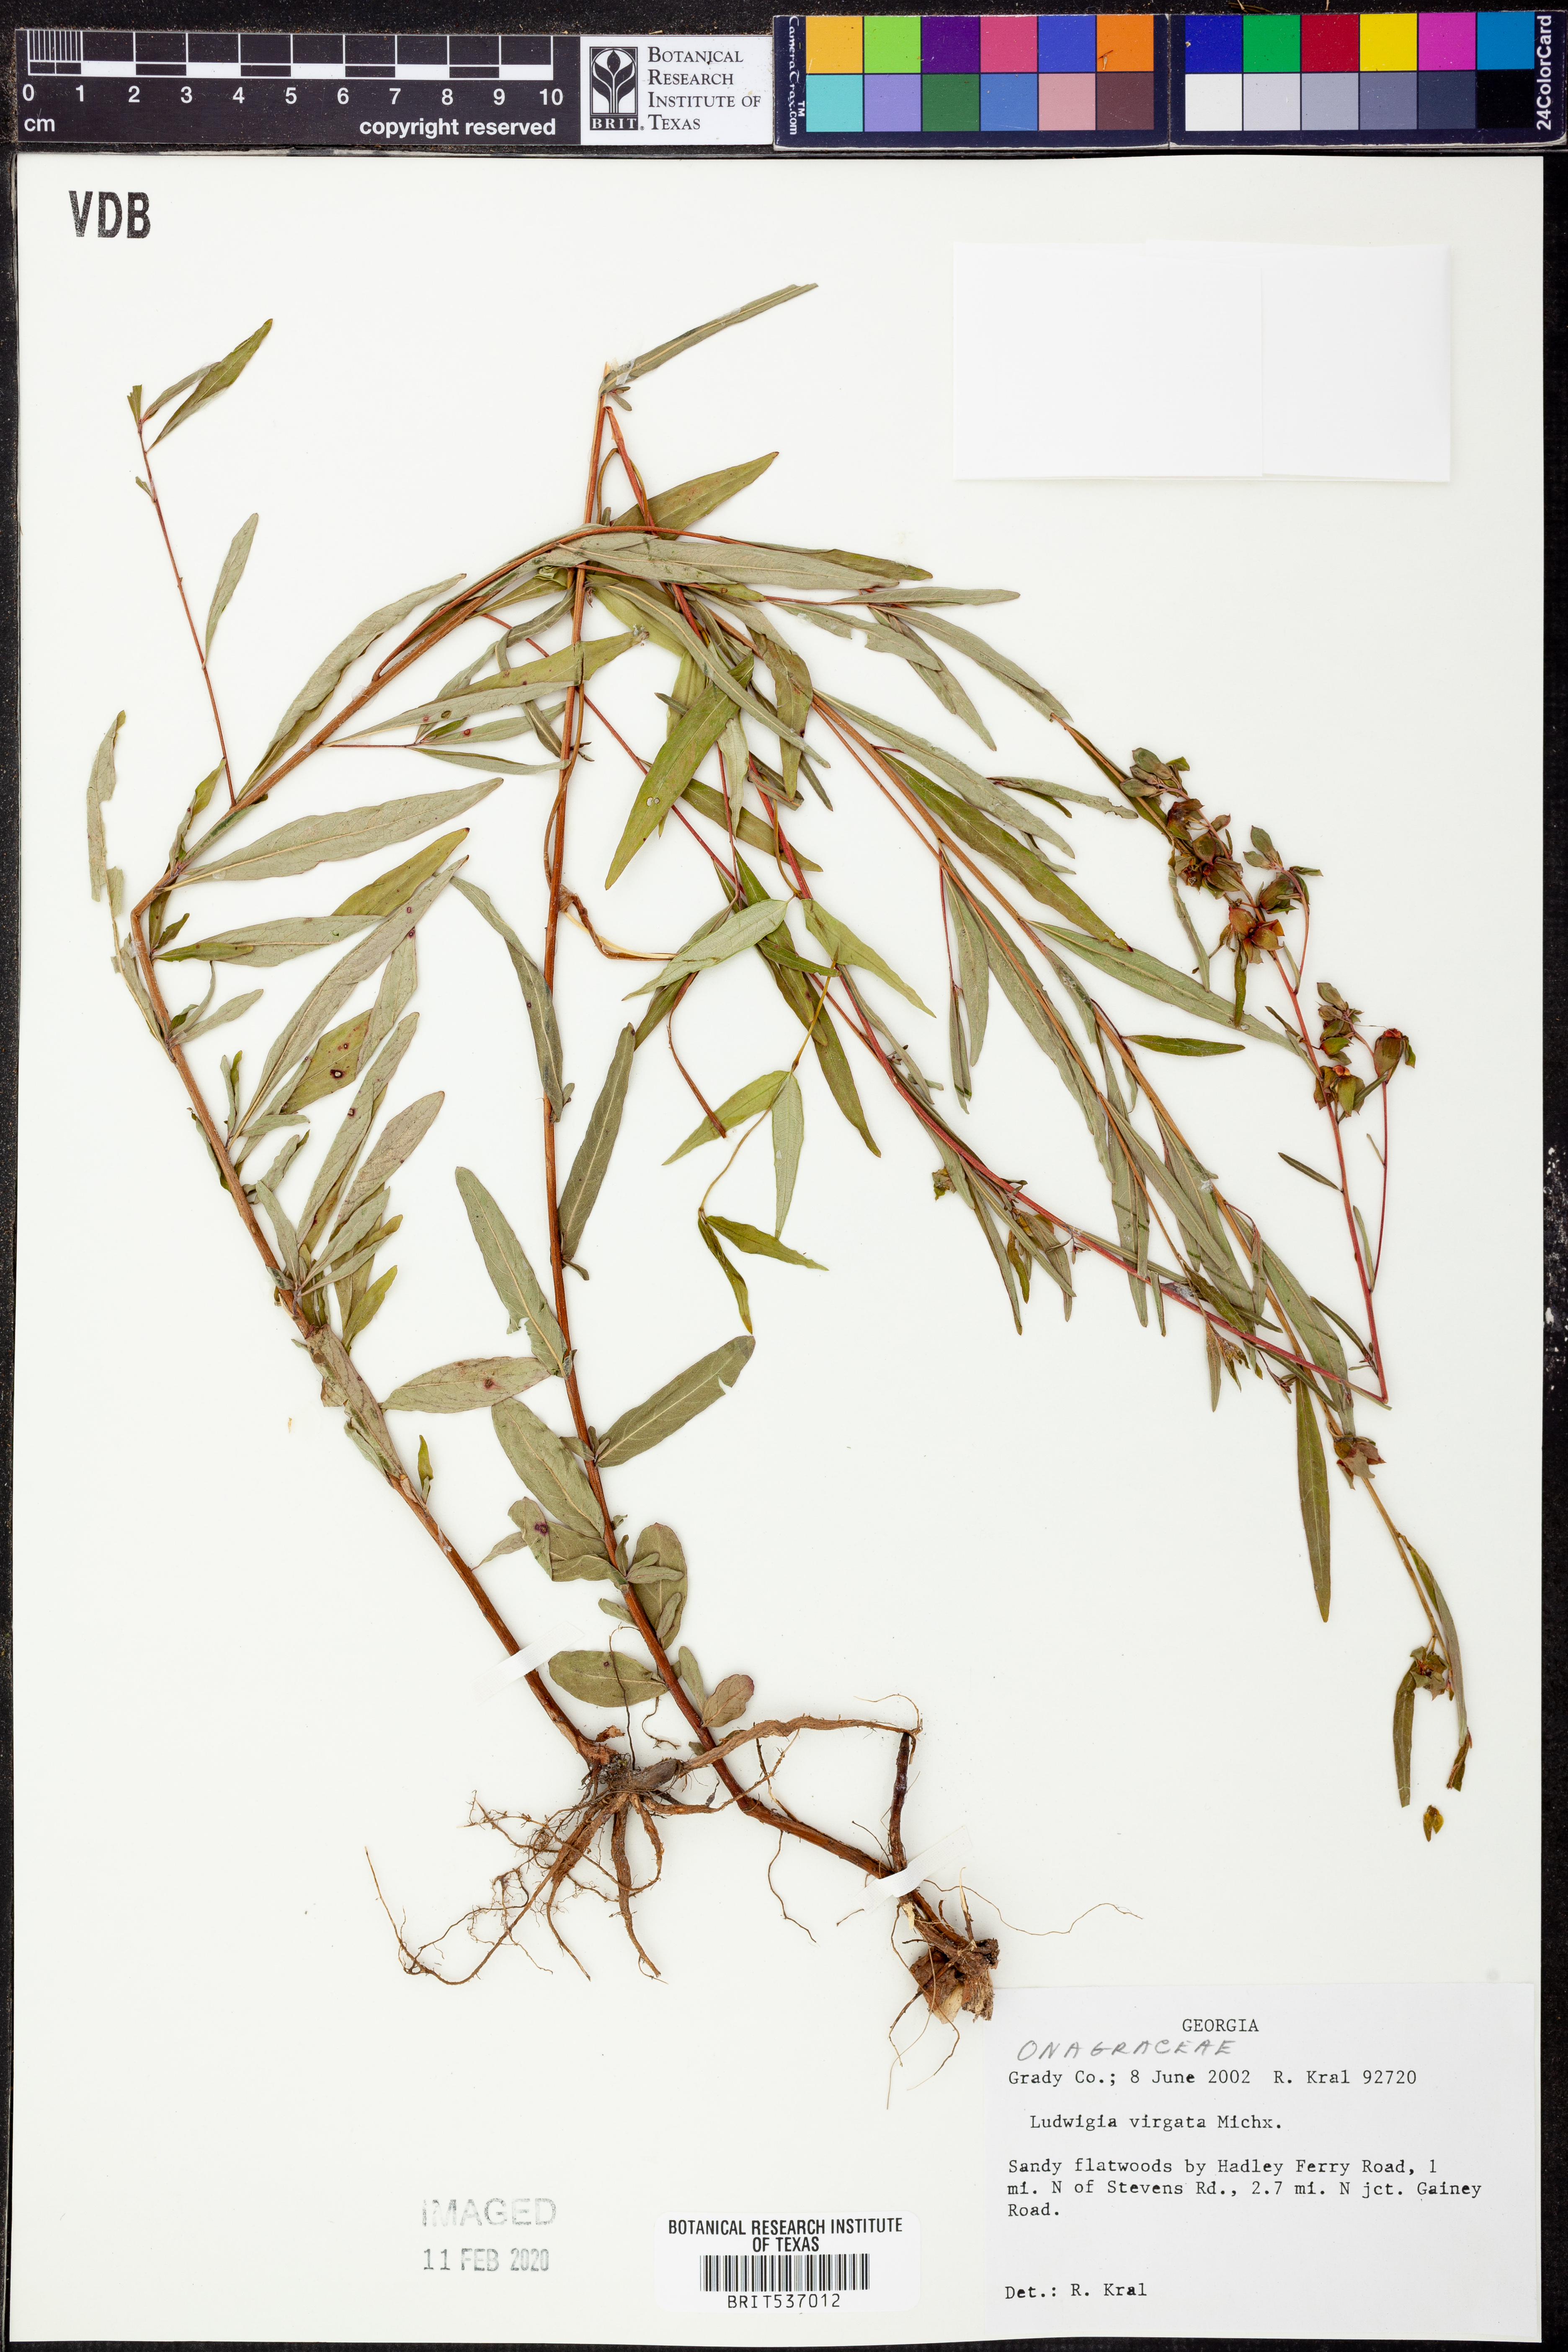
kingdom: Plantae
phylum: Tracheophyta
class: Magnoliopsida
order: Myrtales
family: Onagraceae
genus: Ludwigia
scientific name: Ludwigia virgata
